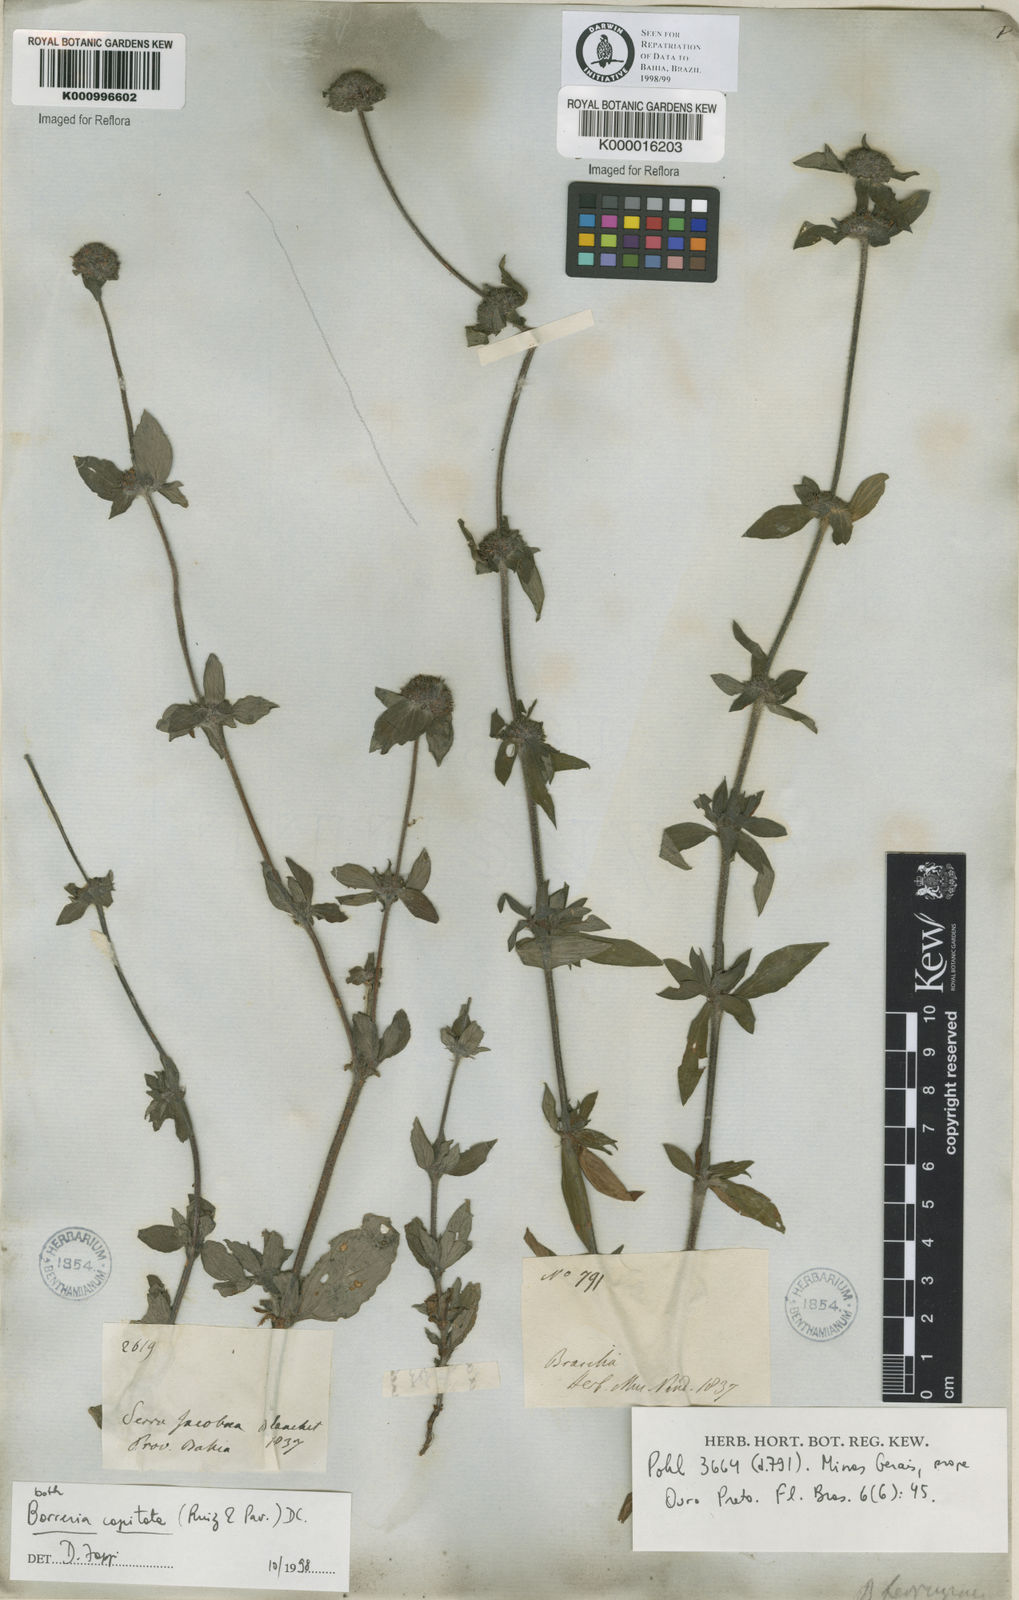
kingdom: Plantae
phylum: Tracheophyta
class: Magnoliopsida
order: Gentianales
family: Rubiaceae
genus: Spermacoce
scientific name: Spermacoce capitata
